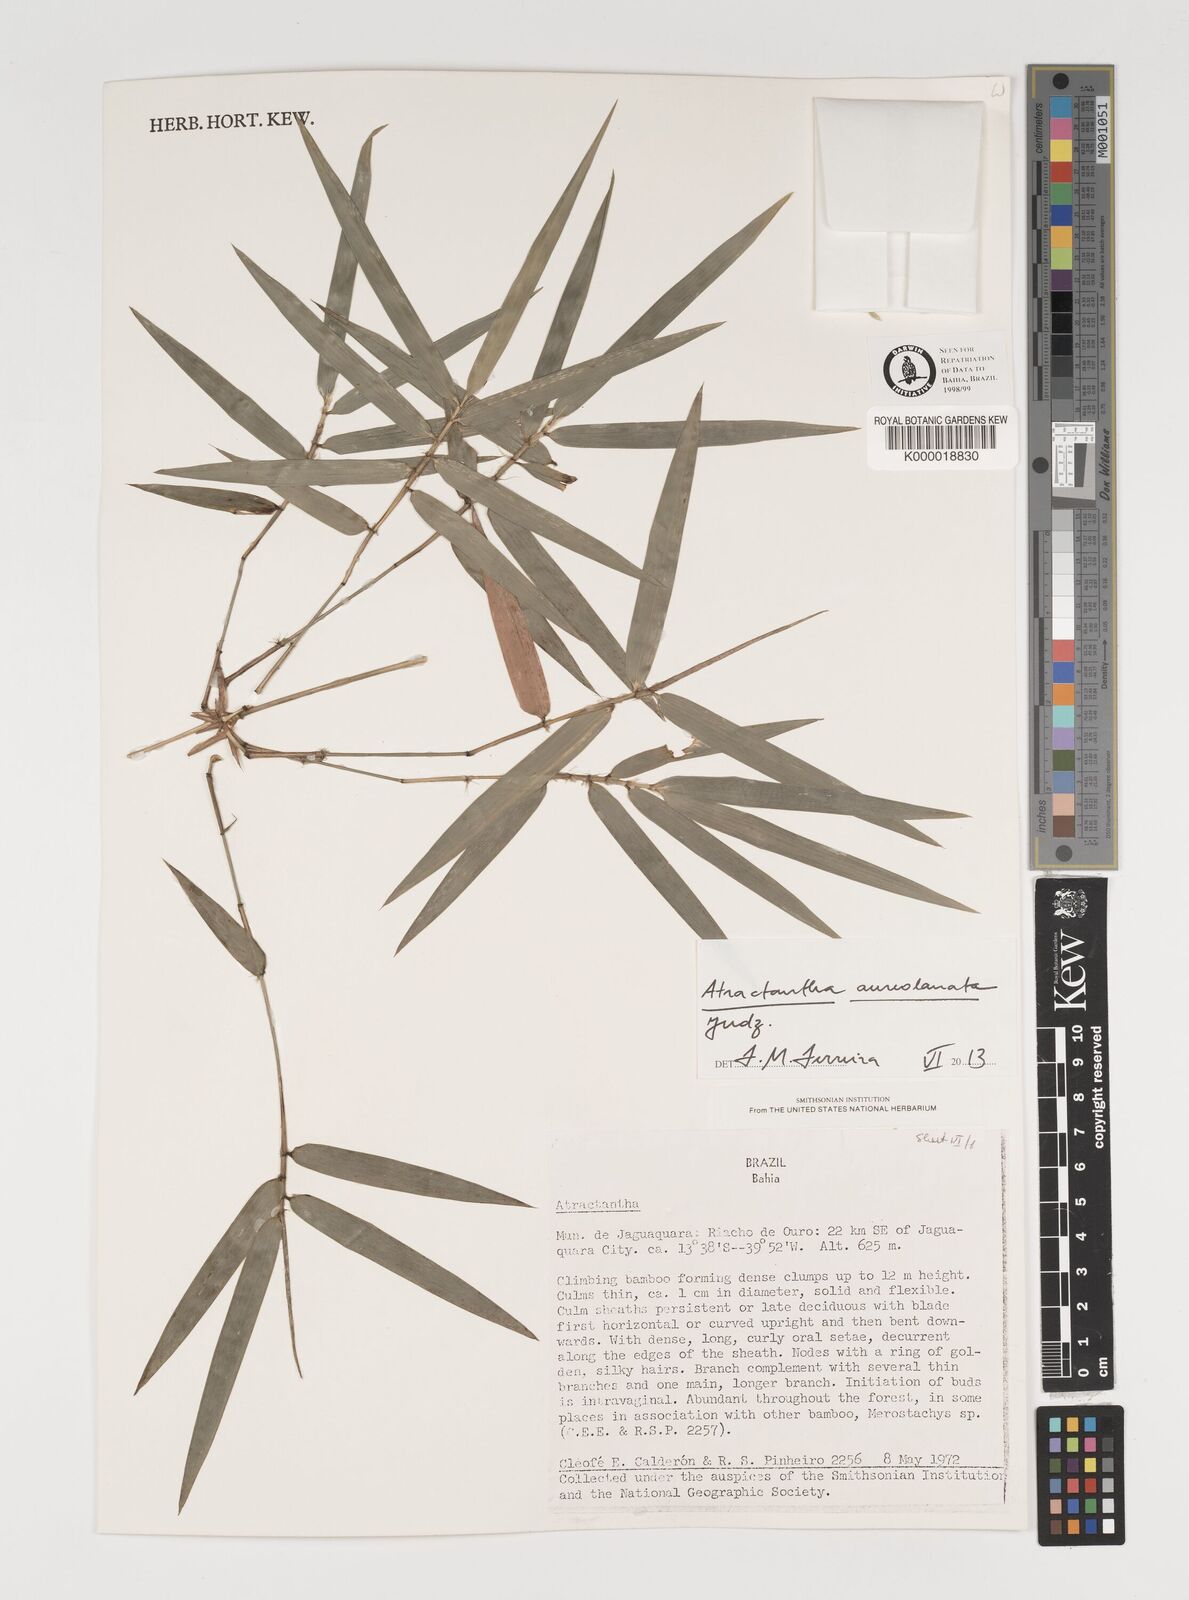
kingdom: Plantae
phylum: Tracheophyta
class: Liliopsida
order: Poales
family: Poaceae
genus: Atractantha
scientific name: Atractantha aureolanata
